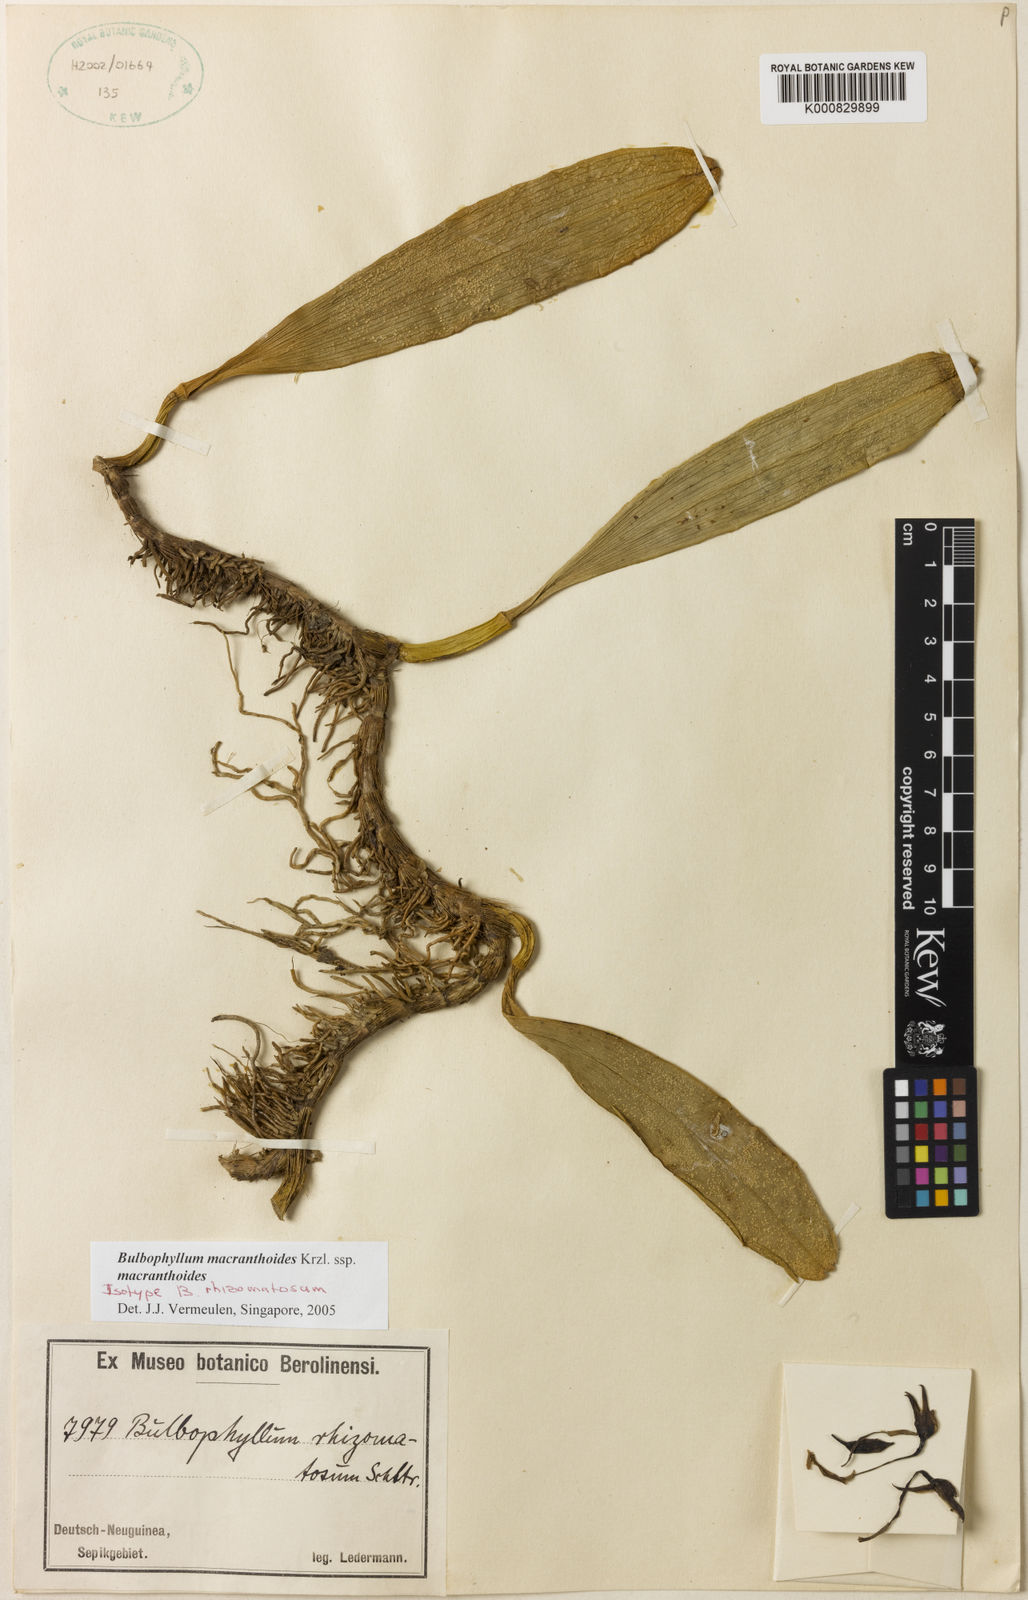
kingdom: Plantae
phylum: Tracheophyta
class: Liliopsida
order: Asparagales
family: Orchidaceae
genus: Bulbophyllum
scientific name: Bulbophyllum macranthoides
